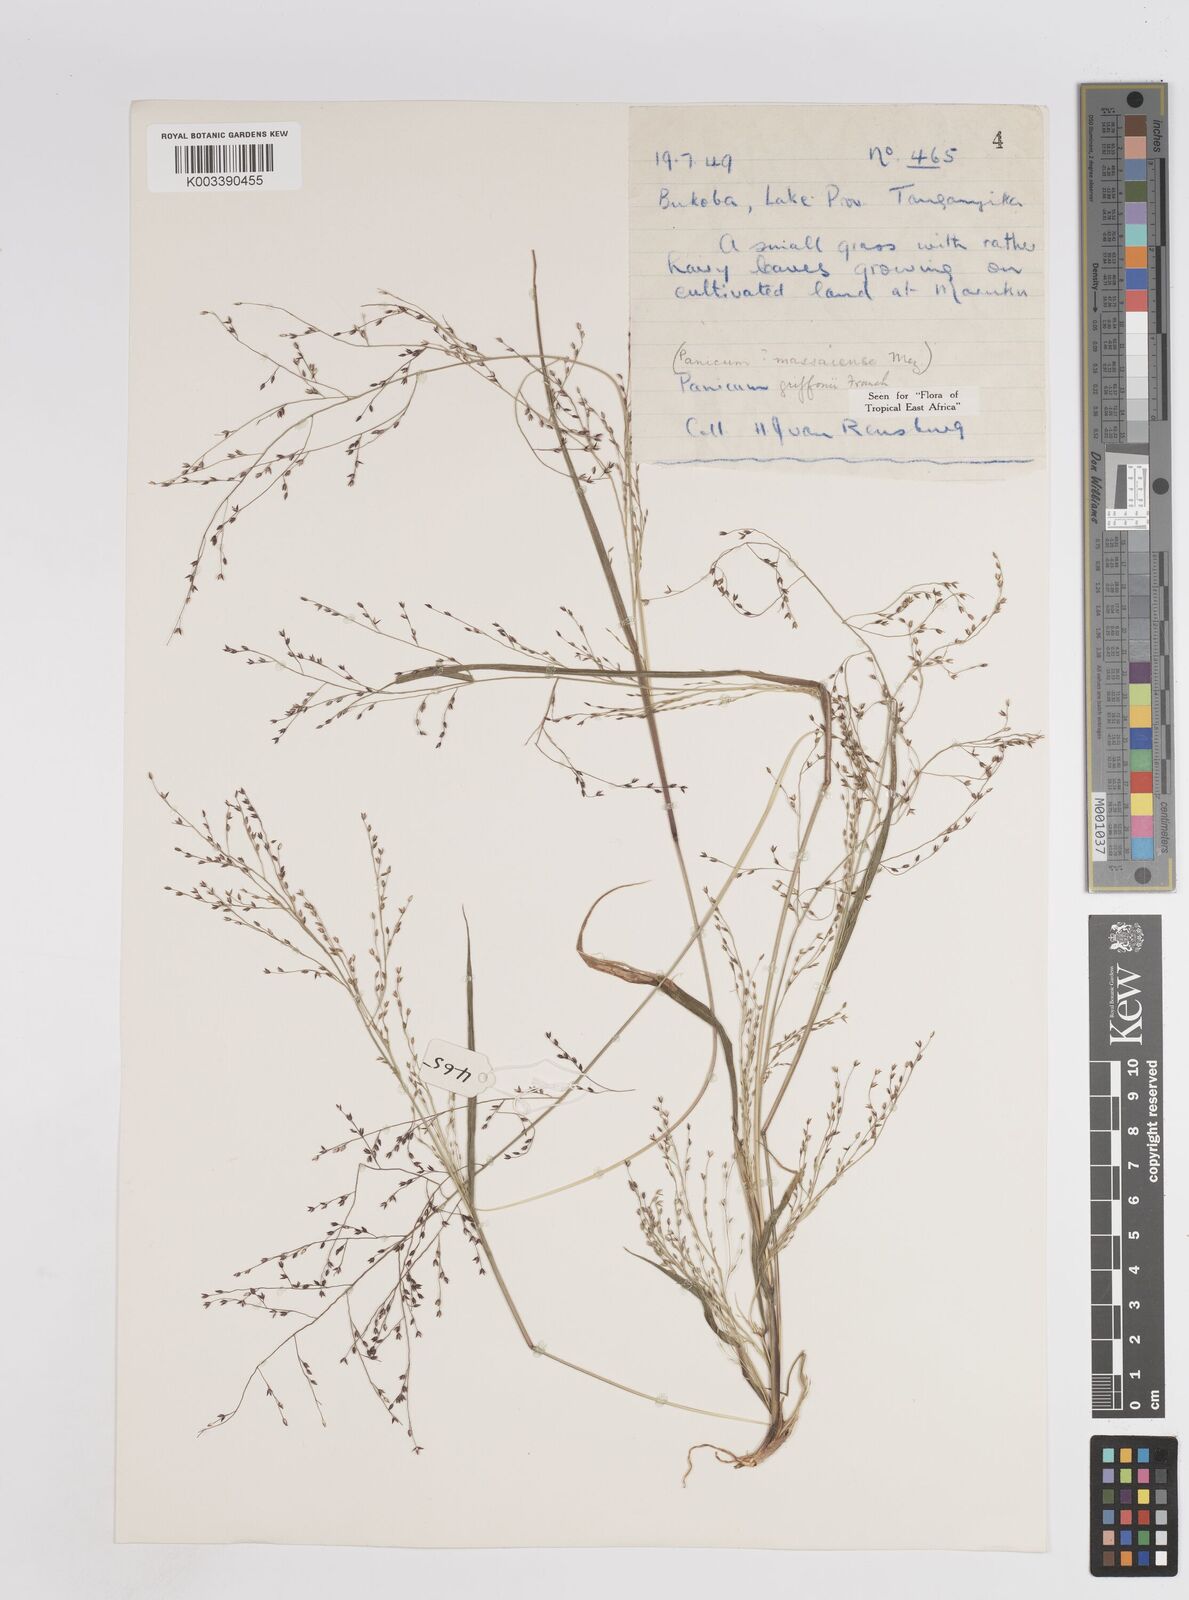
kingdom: Plantae
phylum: Tracheophyta
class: Liliopsida
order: Poales
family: Poaceae
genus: Panicum
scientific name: Panicum griffonii
